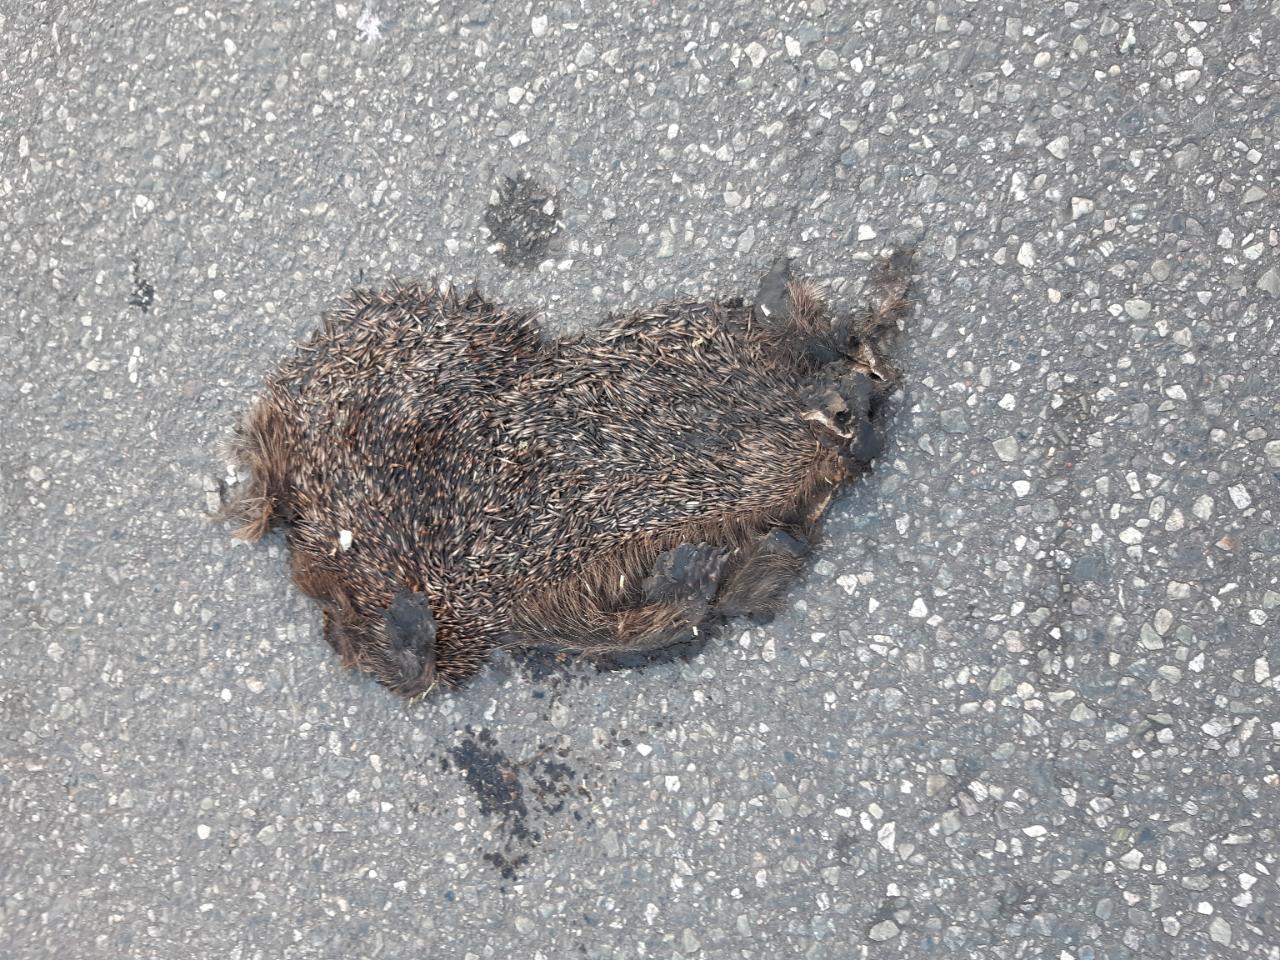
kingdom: Animalia
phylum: Chordata
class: Mammalia
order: Erinaceomorpha
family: Erinaceidae
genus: Erinaceus
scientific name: Erinaceus
